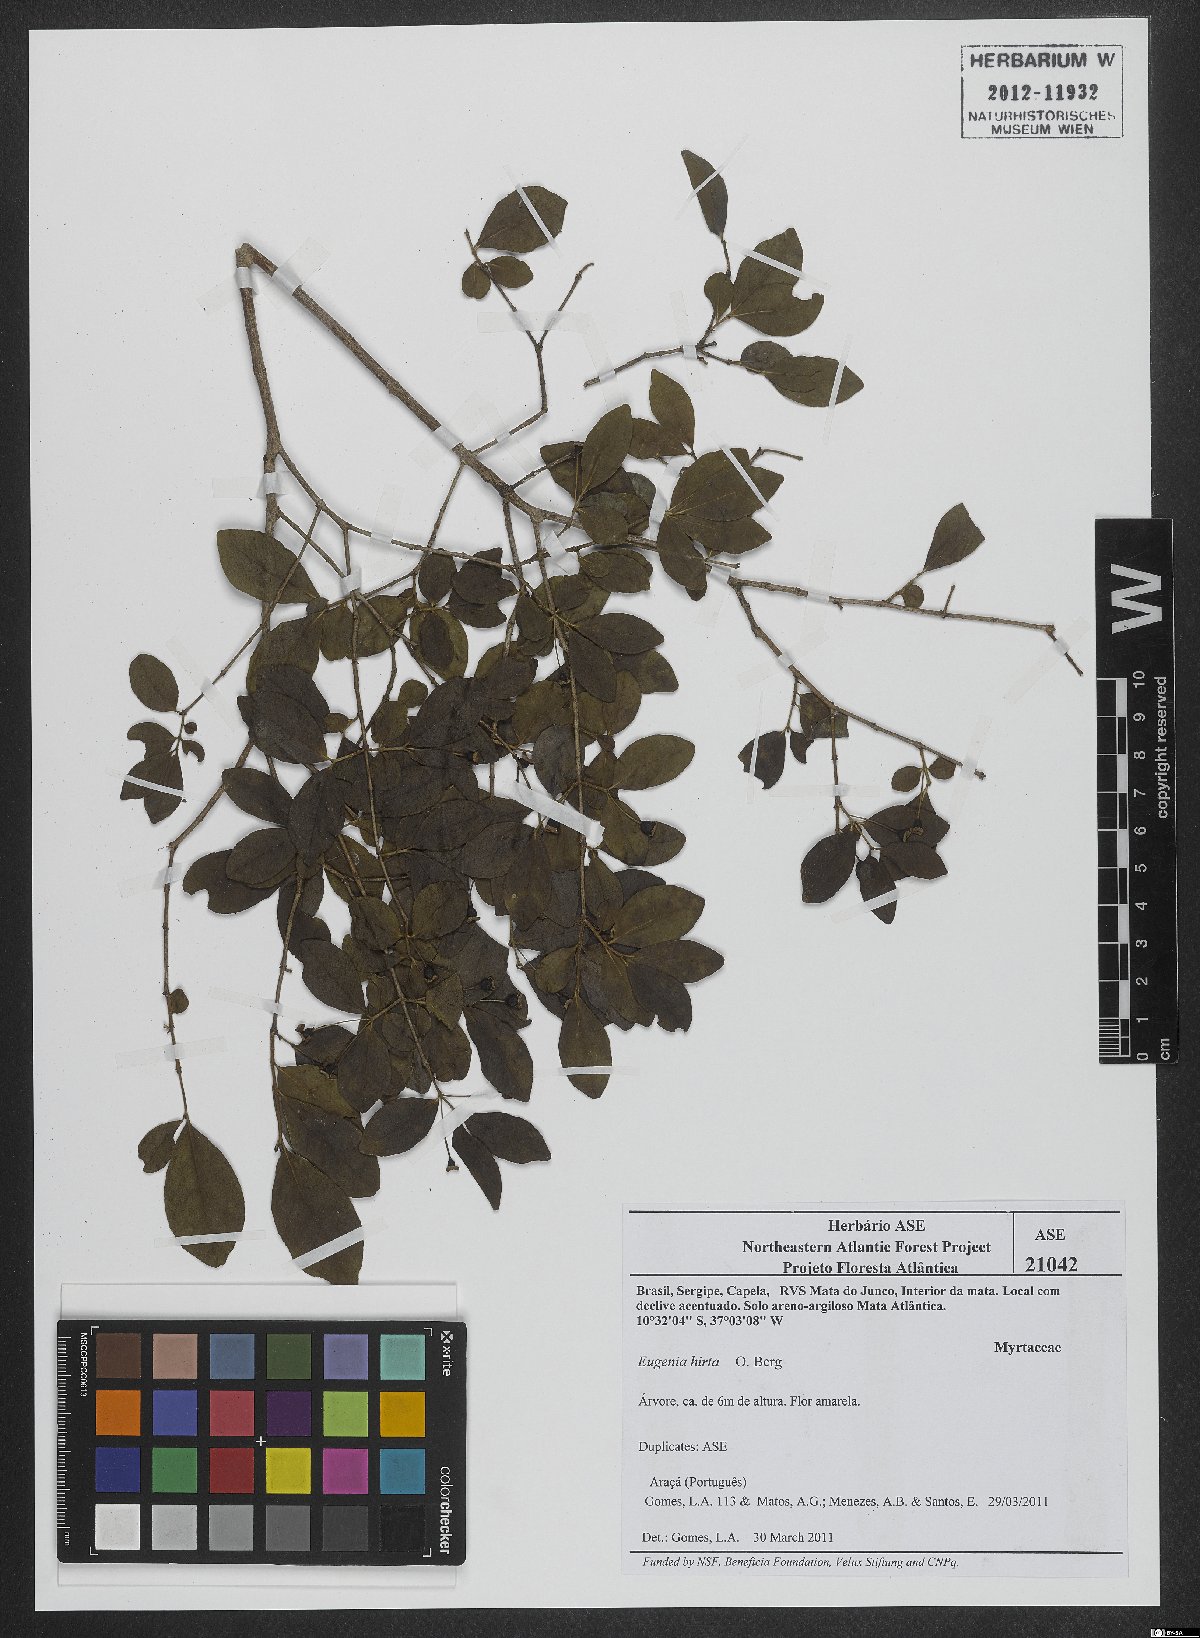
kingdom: Plantae
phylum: Tracheophyta
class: Magnoliopsida
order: Myrtales
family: Myrtaceae
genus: Eugenia
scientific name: Eugenia hirta
